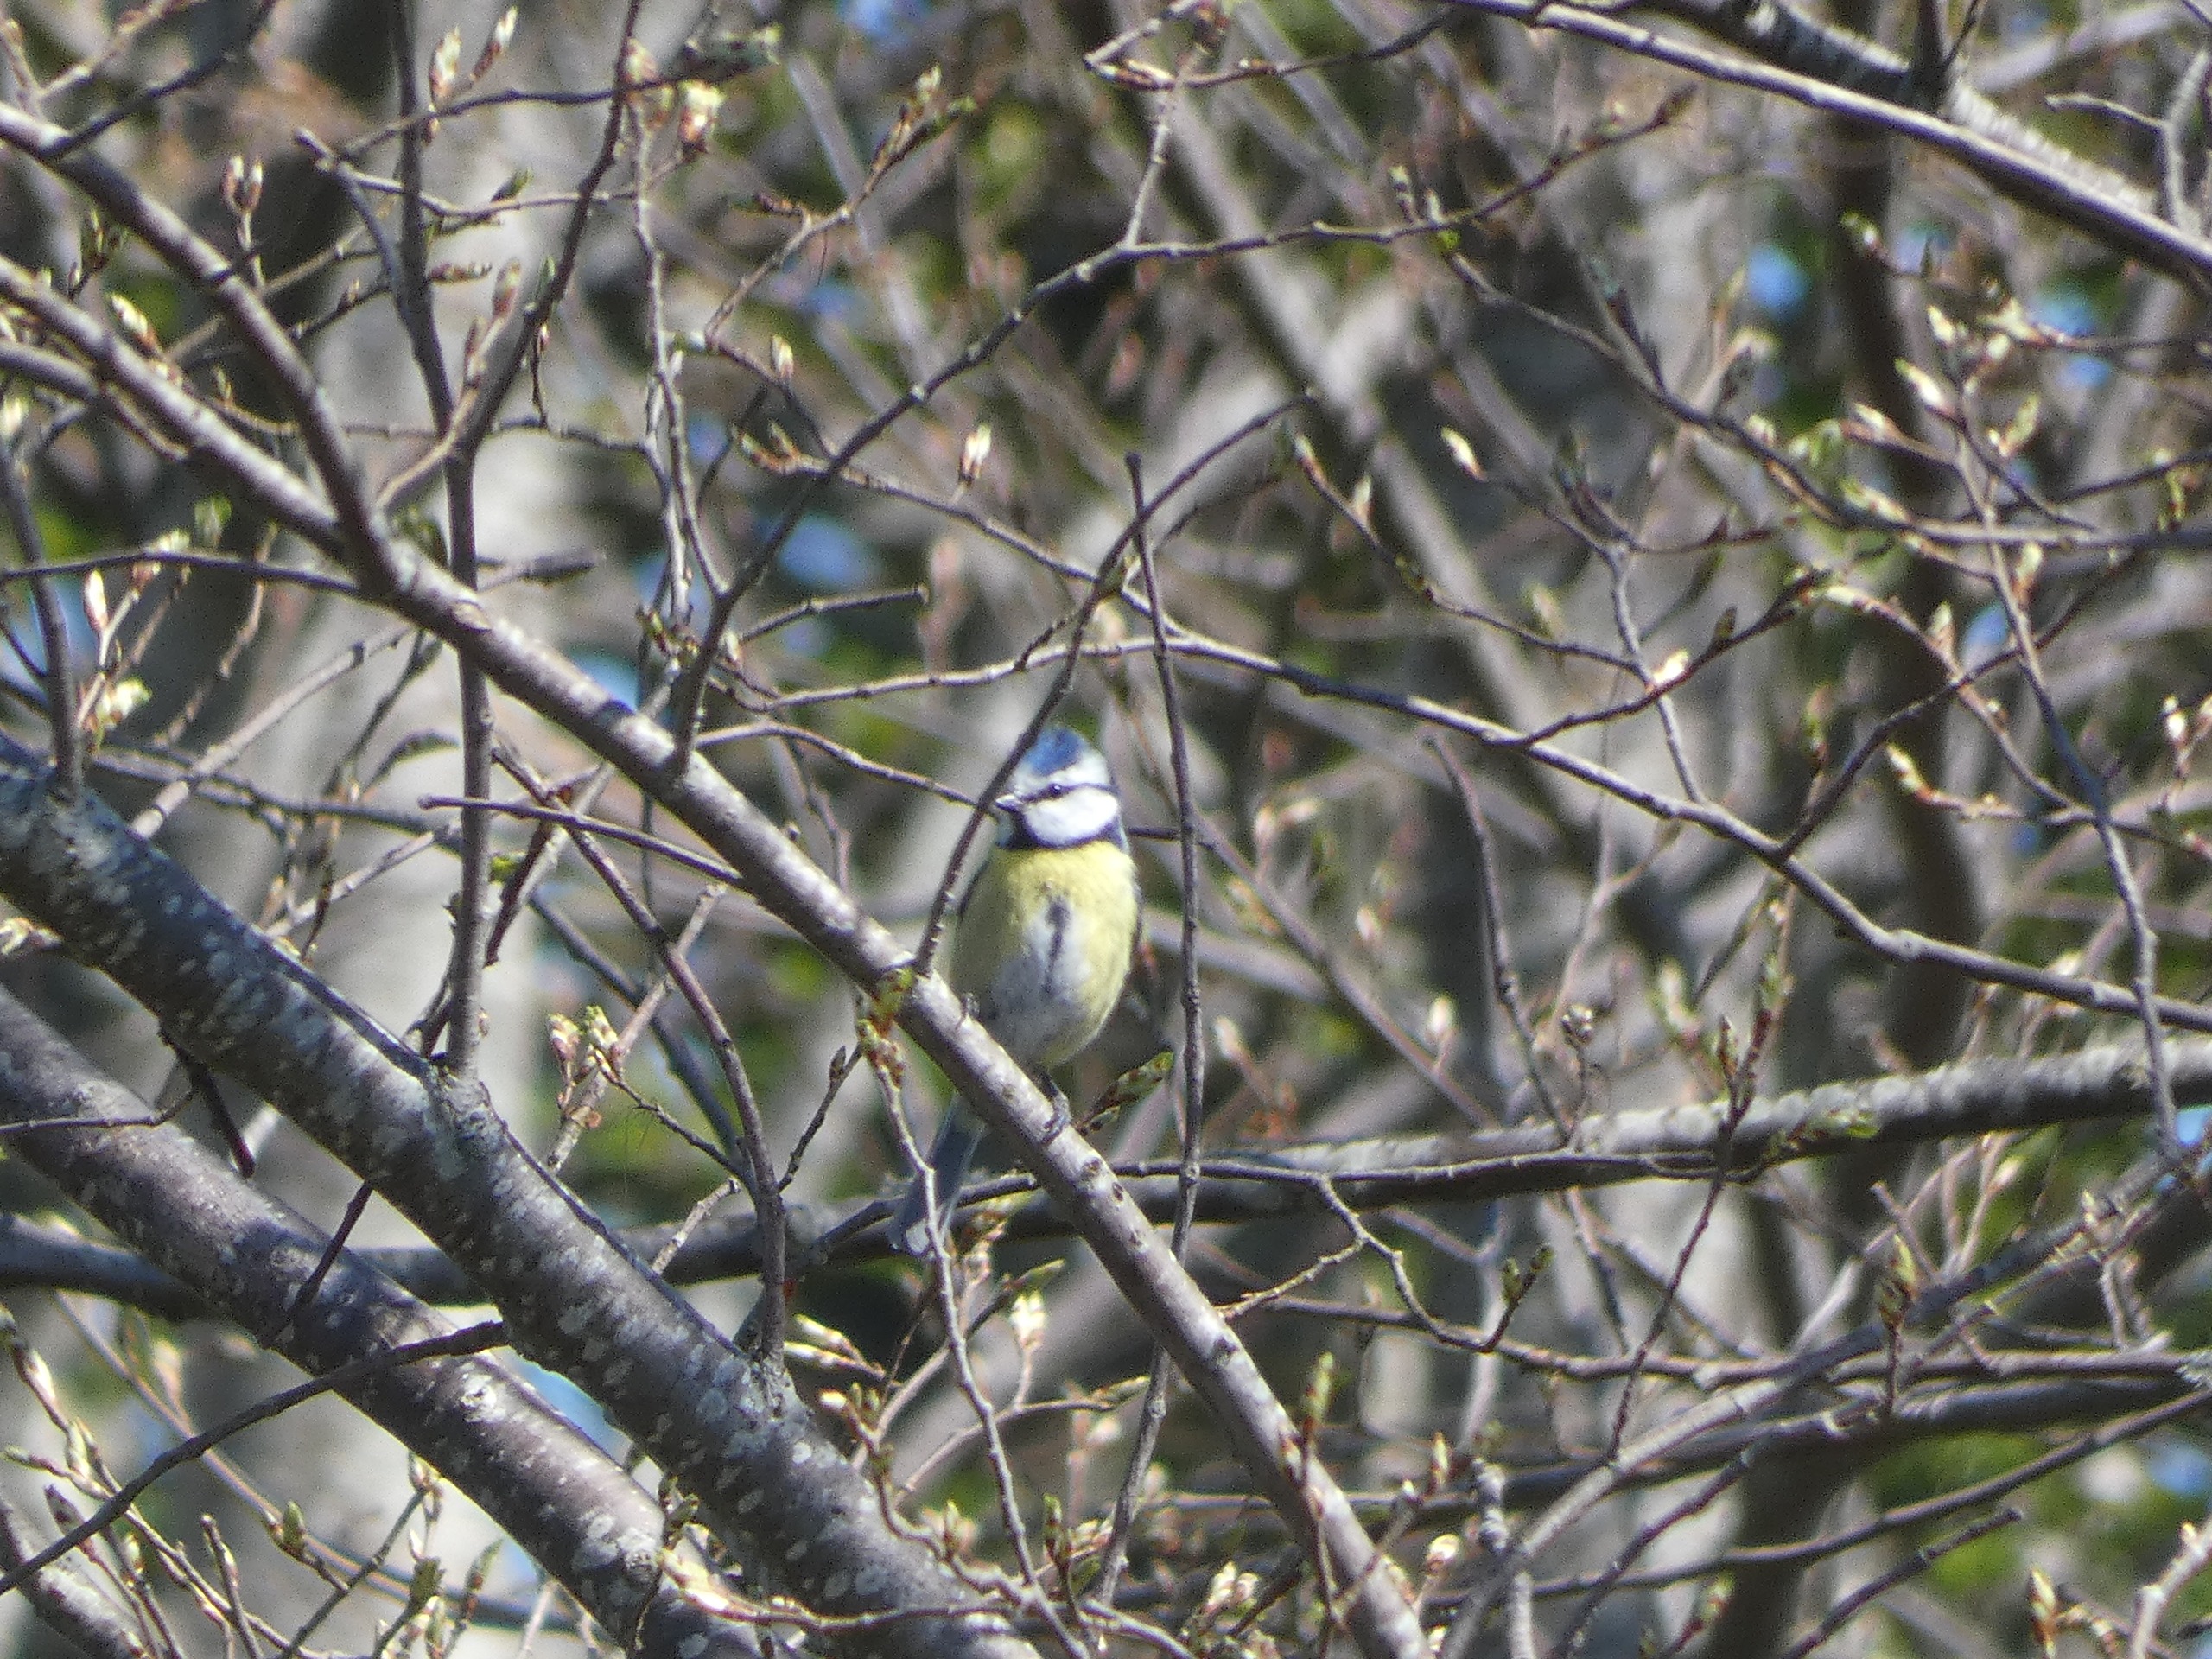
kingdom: Animalia
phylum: Chordata
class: Aves
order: Passeriformes
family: Paridae
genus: Cyanistes
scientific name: Cyanistes caeruleus
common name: Blåmejse
